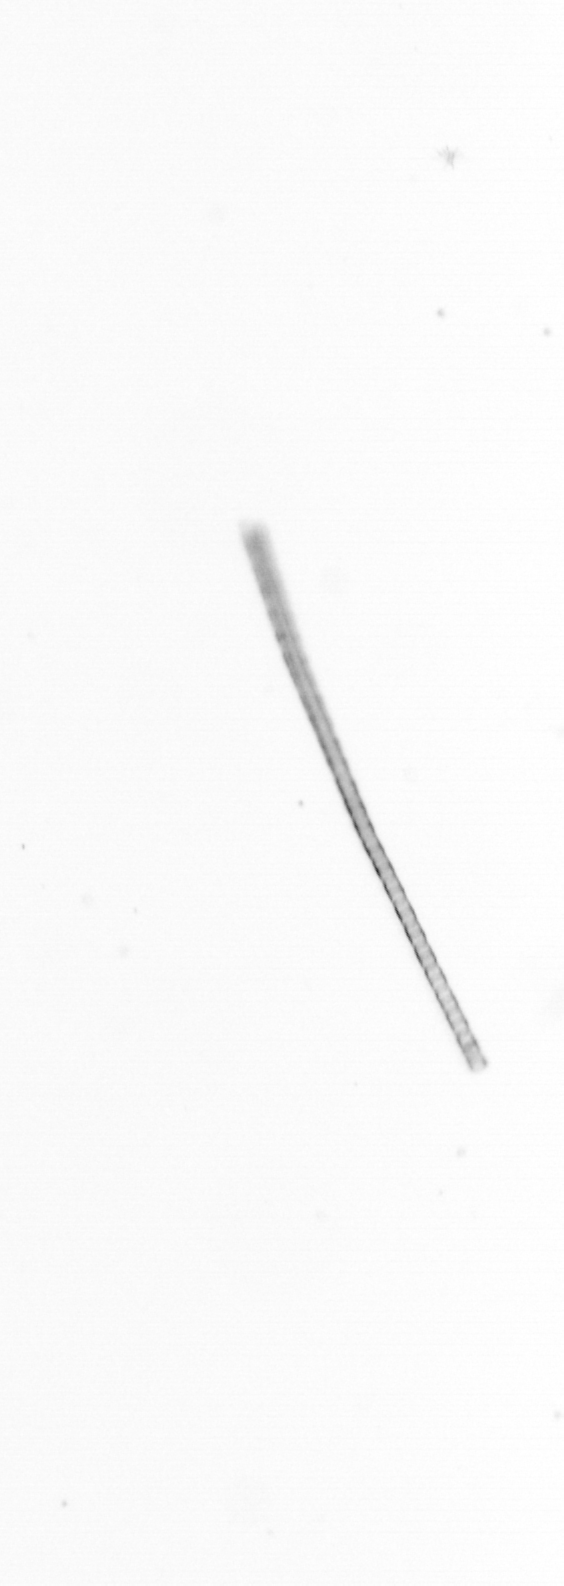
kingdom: Chromista
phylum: Ochrophyta
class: Bacillariophyceae
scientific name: Bacillariophyceae
